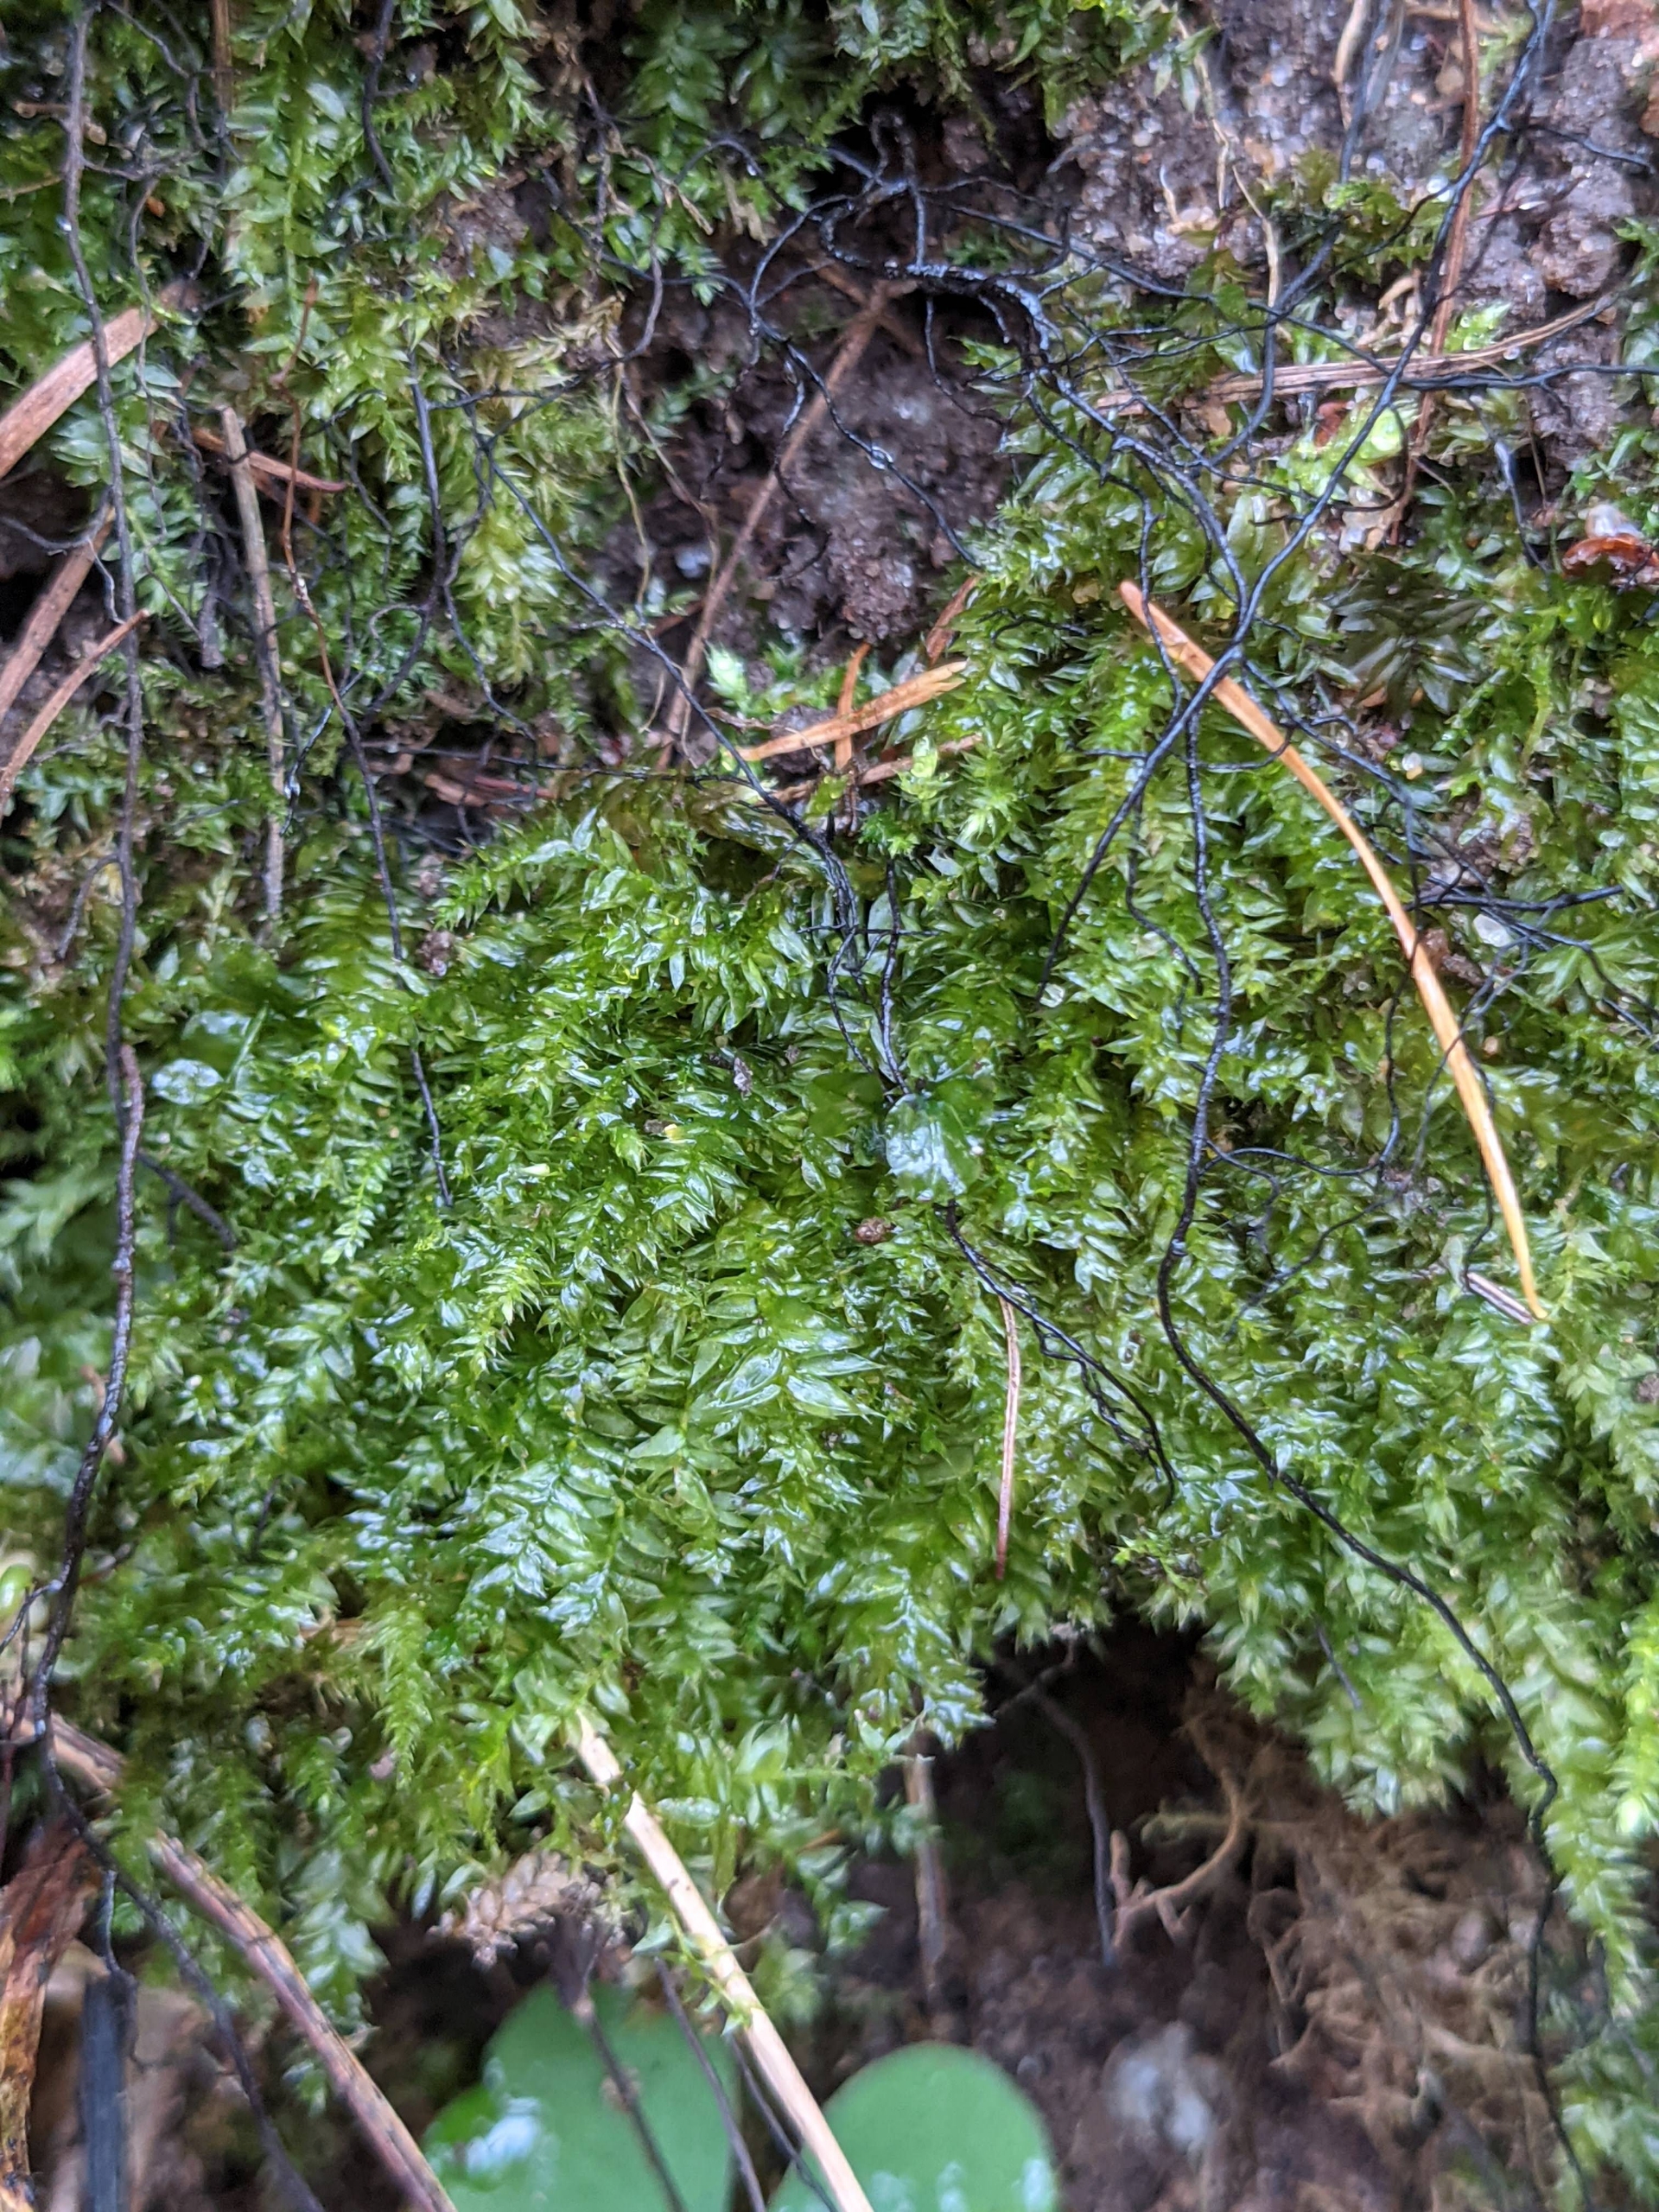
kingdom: Plantae
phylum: Bryophyta
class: Bryopsida
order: Hypnales
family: Plagiotheciaceae
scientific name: Plagiotheciaceae
